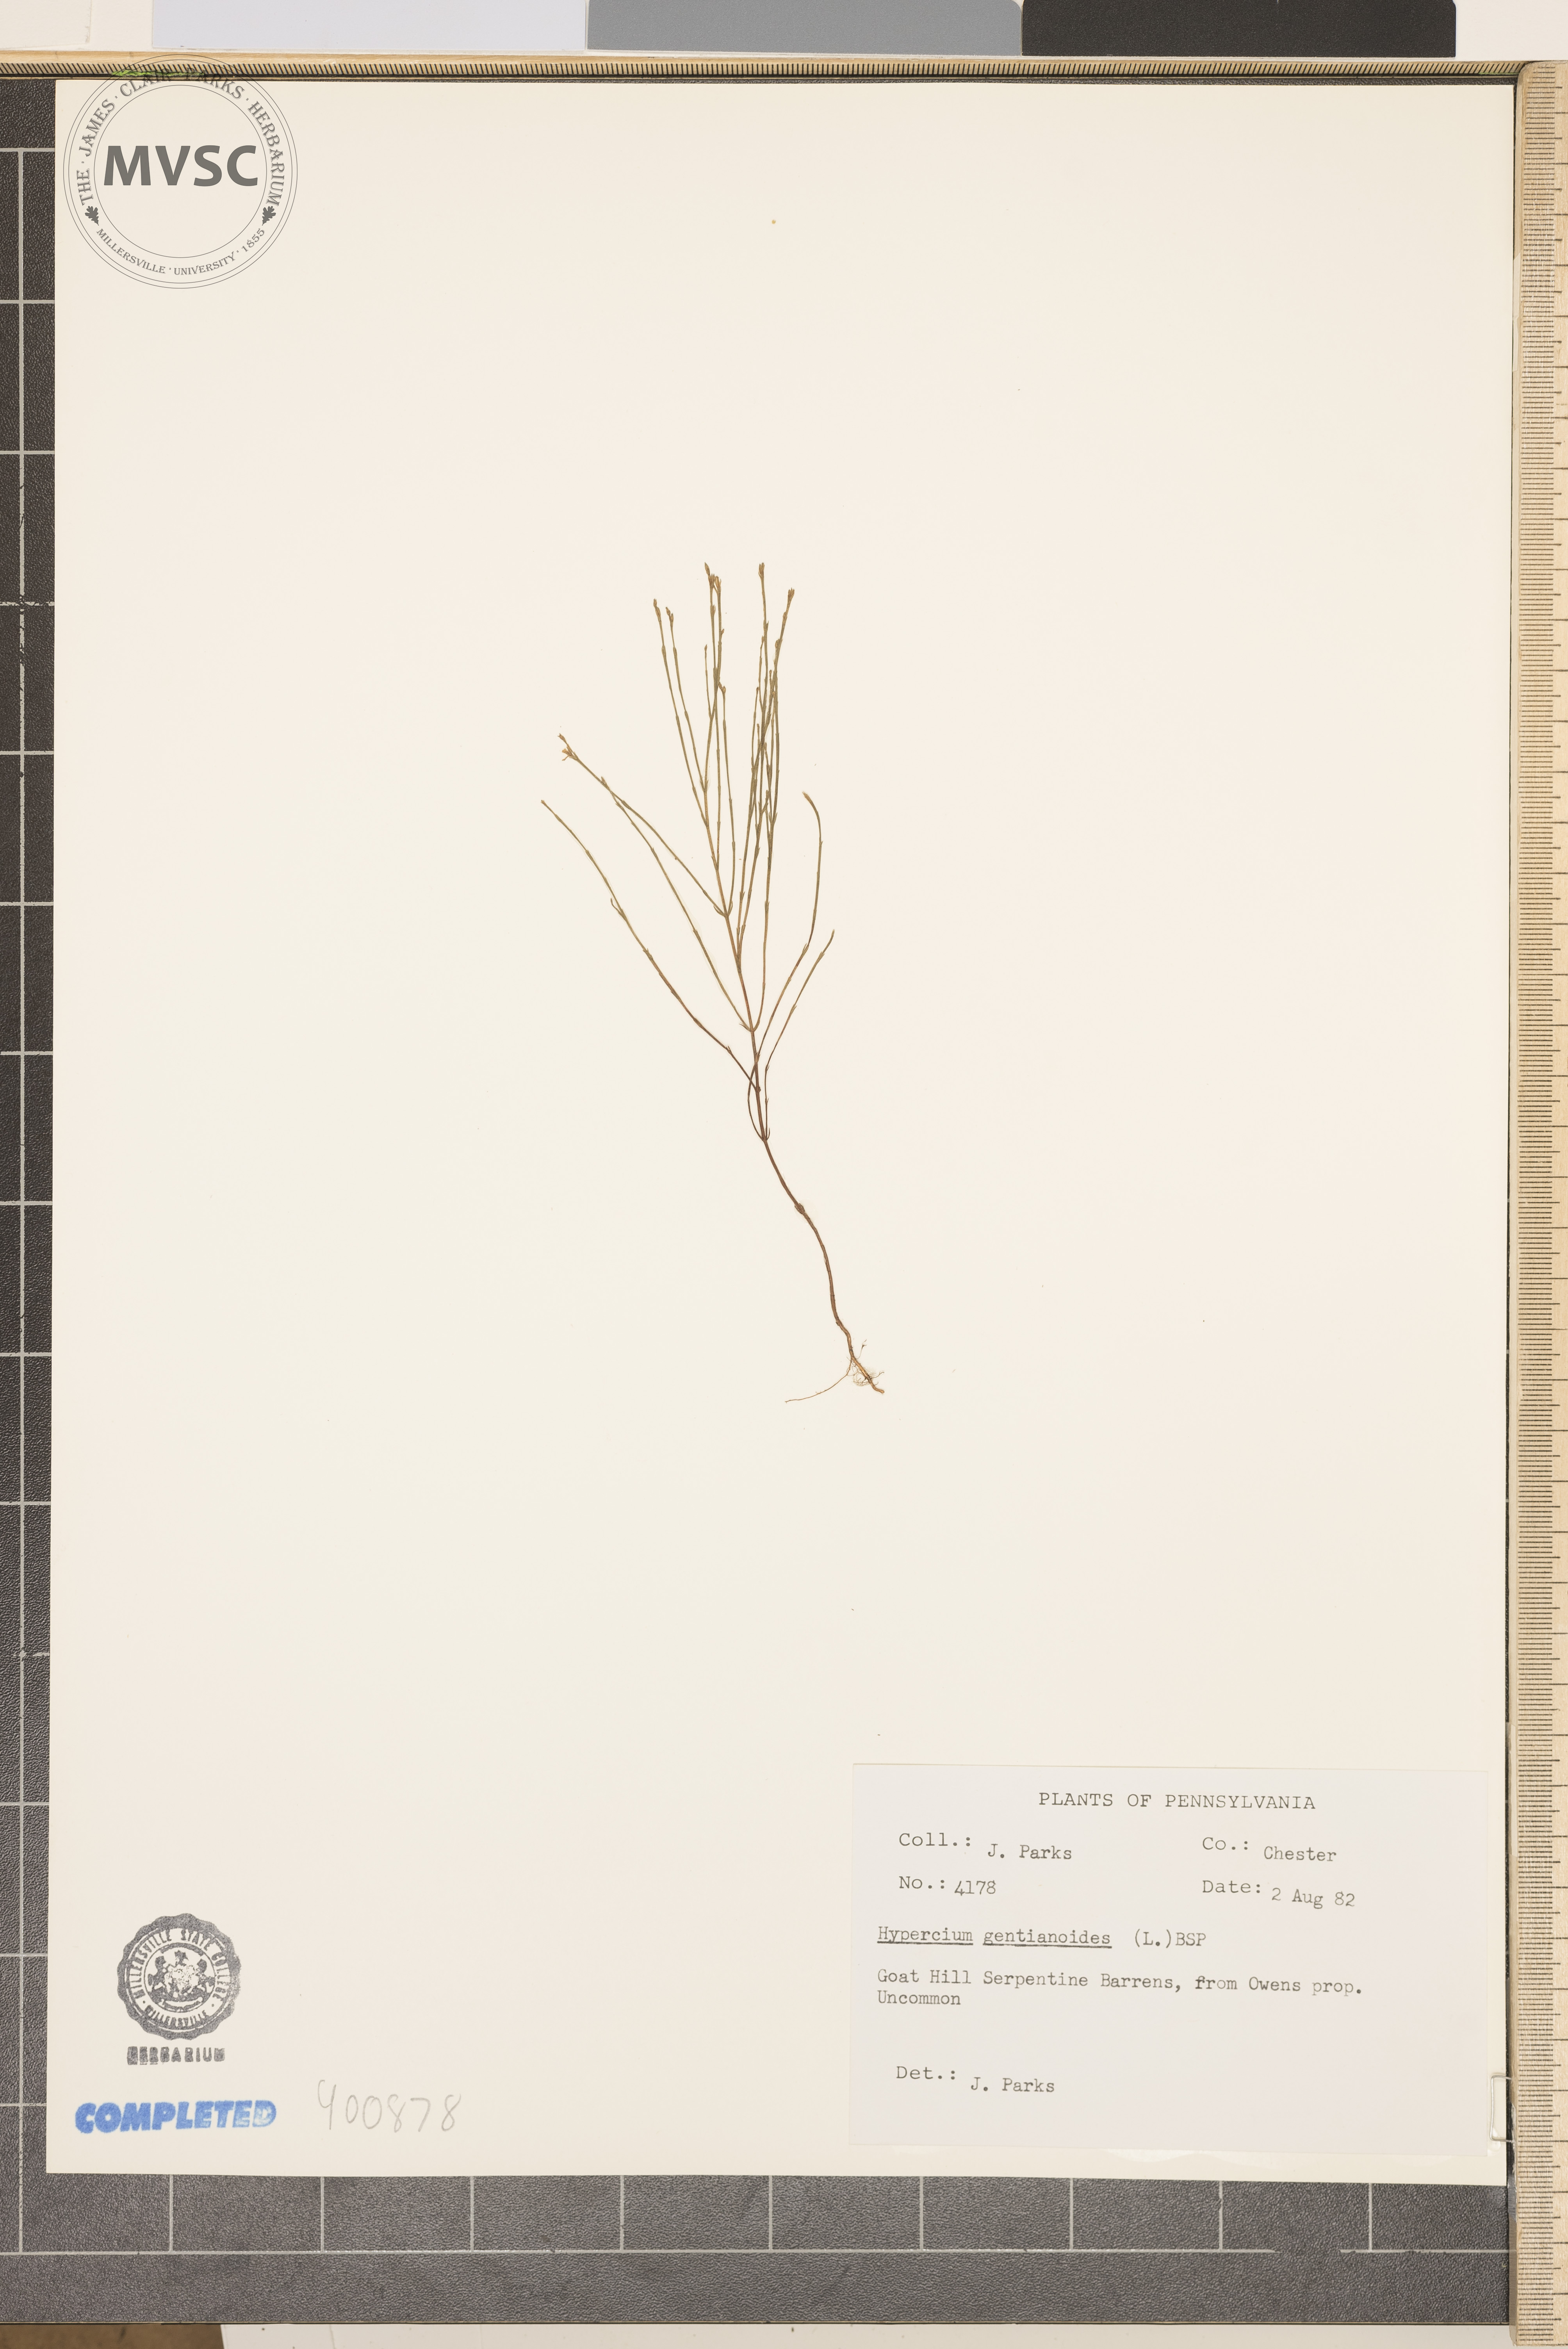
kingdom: Plantae
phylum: Tracheophyta
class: Magnoliopsida
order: Malpighiales
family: Hypericaceae
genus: Hypericum
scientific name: Hypericum gentianoides
